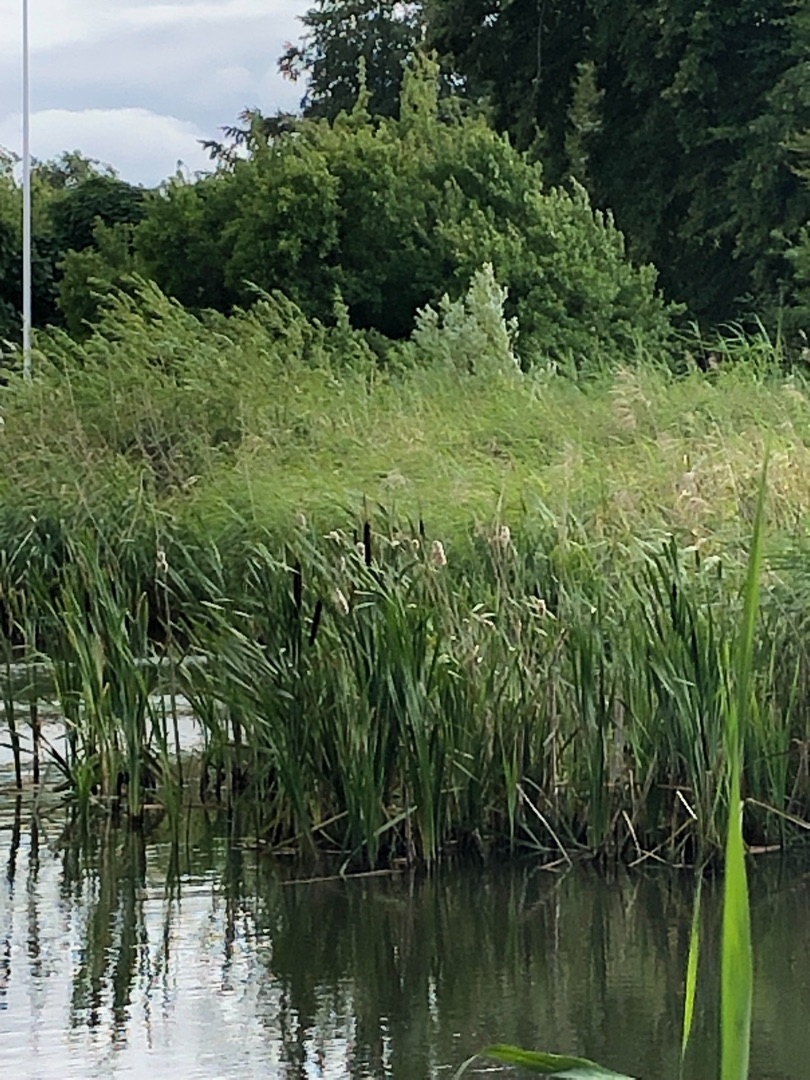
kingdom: Plantae
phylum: Tracheophyta
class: Liliopsida
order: Poales
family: Typhaceae
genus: Typha
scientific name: Typha latifolia
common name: Bredbladet dunhammer
